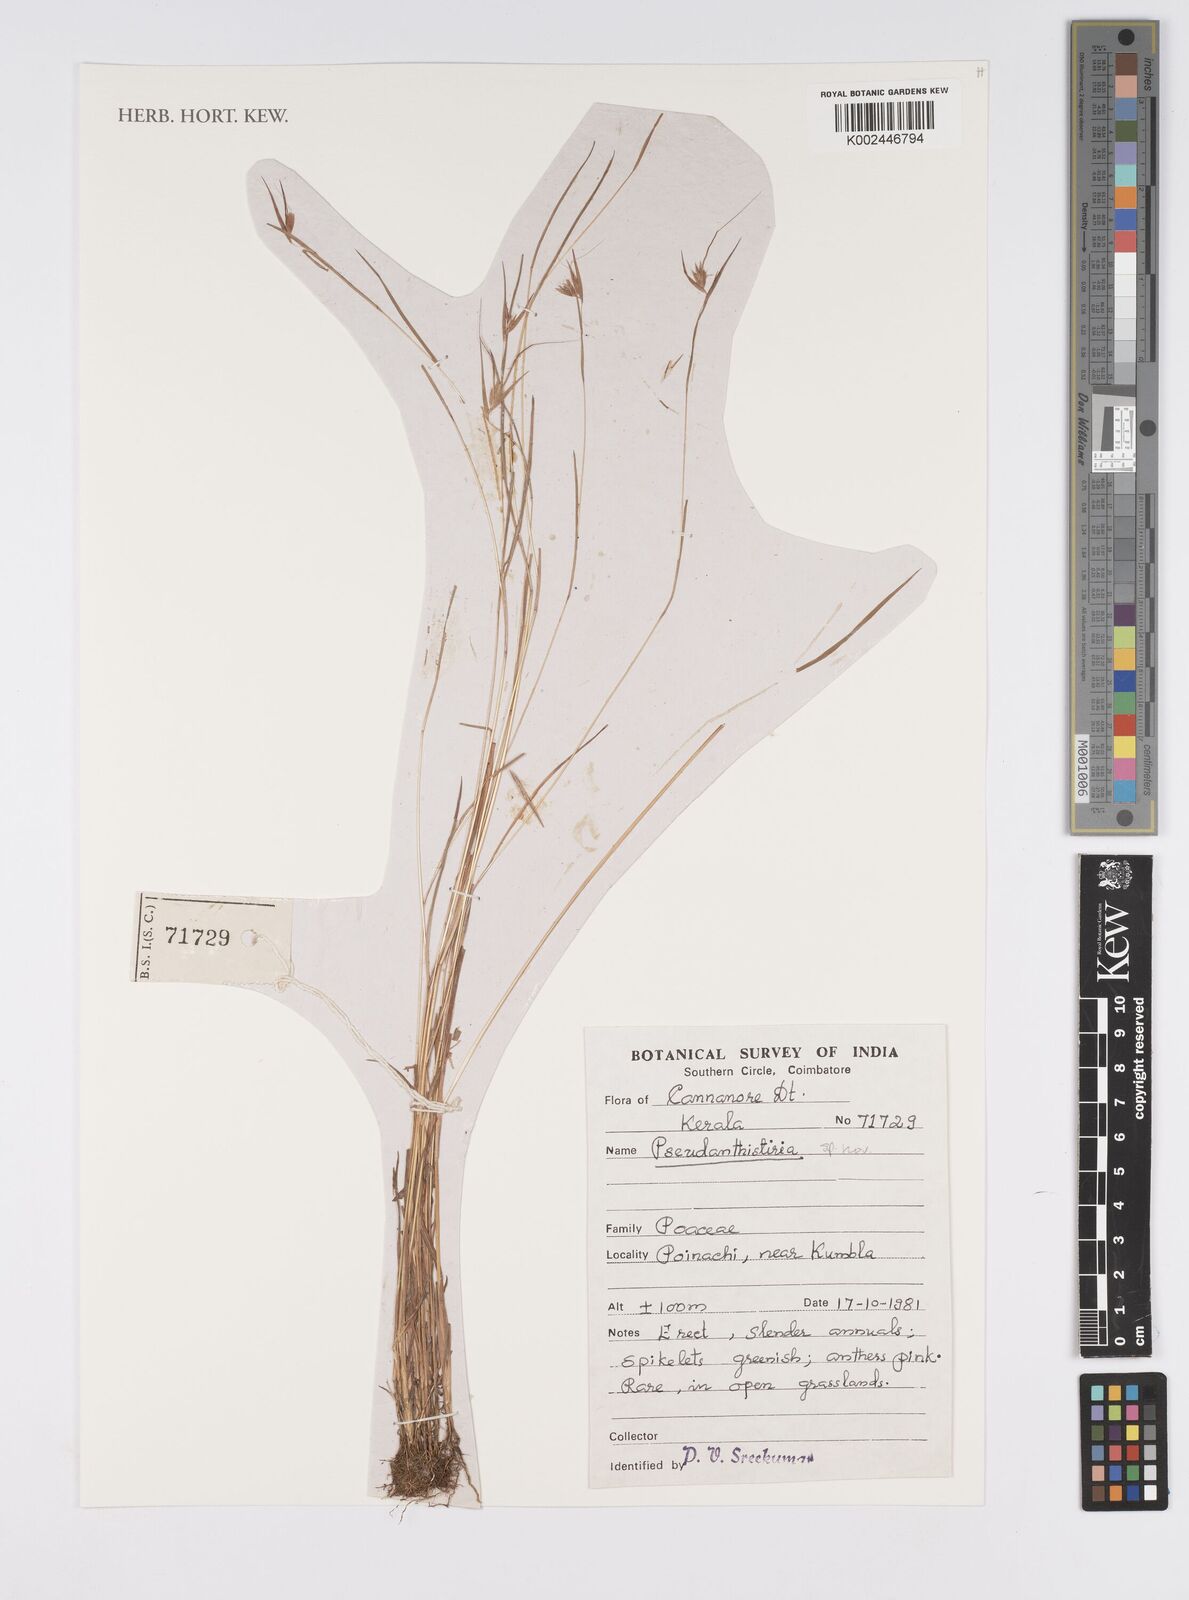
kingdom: Plantae
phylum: Tracheophyta
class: Liliopsida
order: Poales
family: Poaceae
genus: Pseudanthistiria
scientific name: Pseudanthistiria
